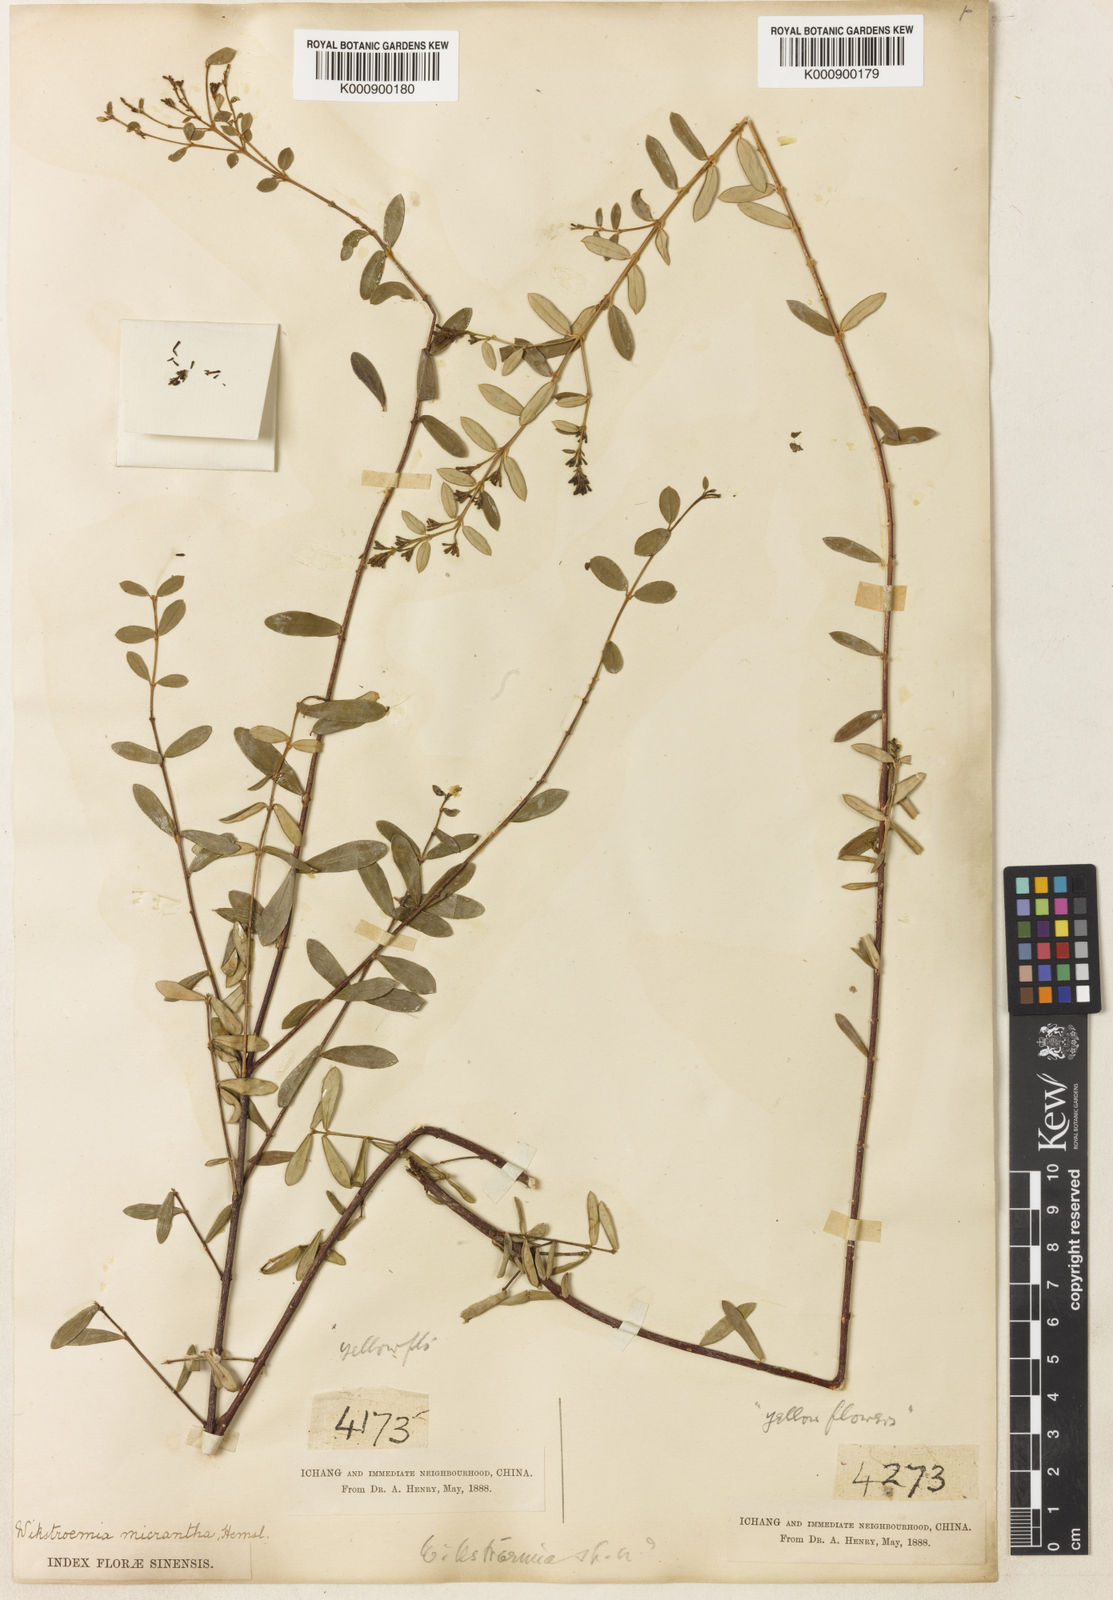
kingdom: Plantae
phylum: Tracheophyta
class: Magnoliopsida
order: Malvales
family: Thymelaeaceae
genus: Wikstroemia
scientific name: Wikstroemia micrantha
